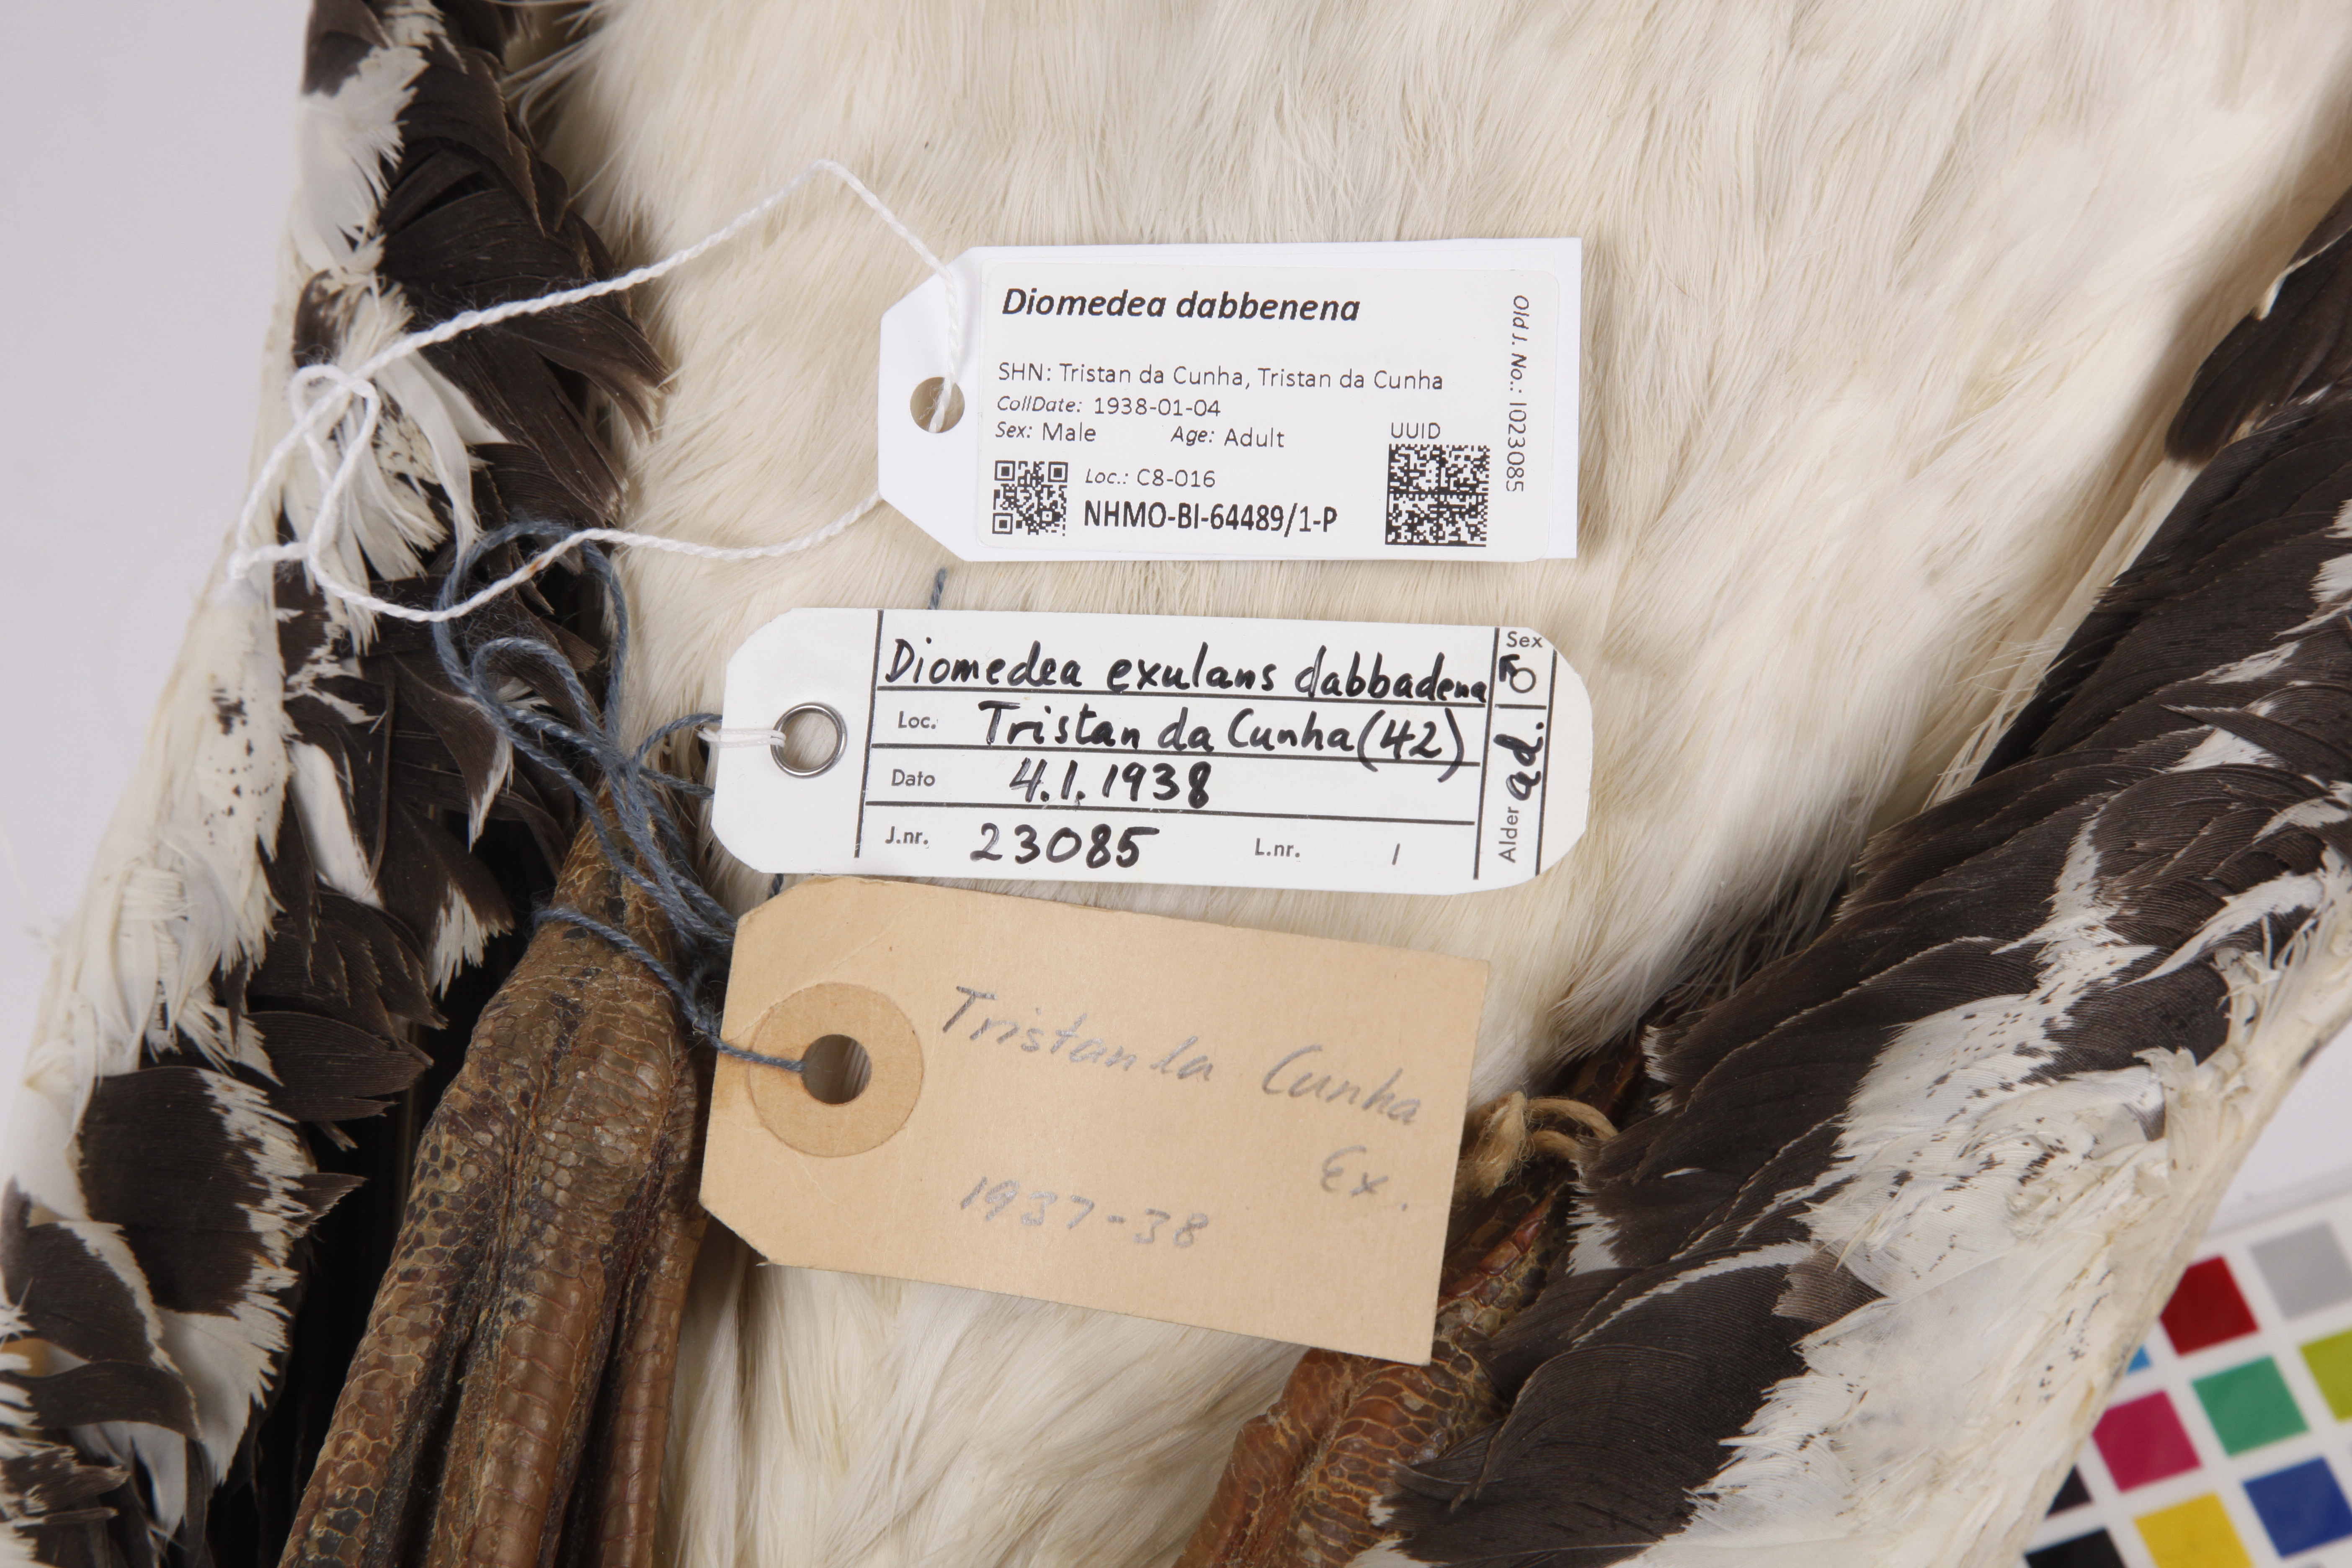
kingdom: Animalia
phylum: Chordata
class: Aves
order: Procellariiformes
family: Diomedeidae
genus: Diomedea
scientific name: Diomedea dabbenena
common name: Tristan albatross
